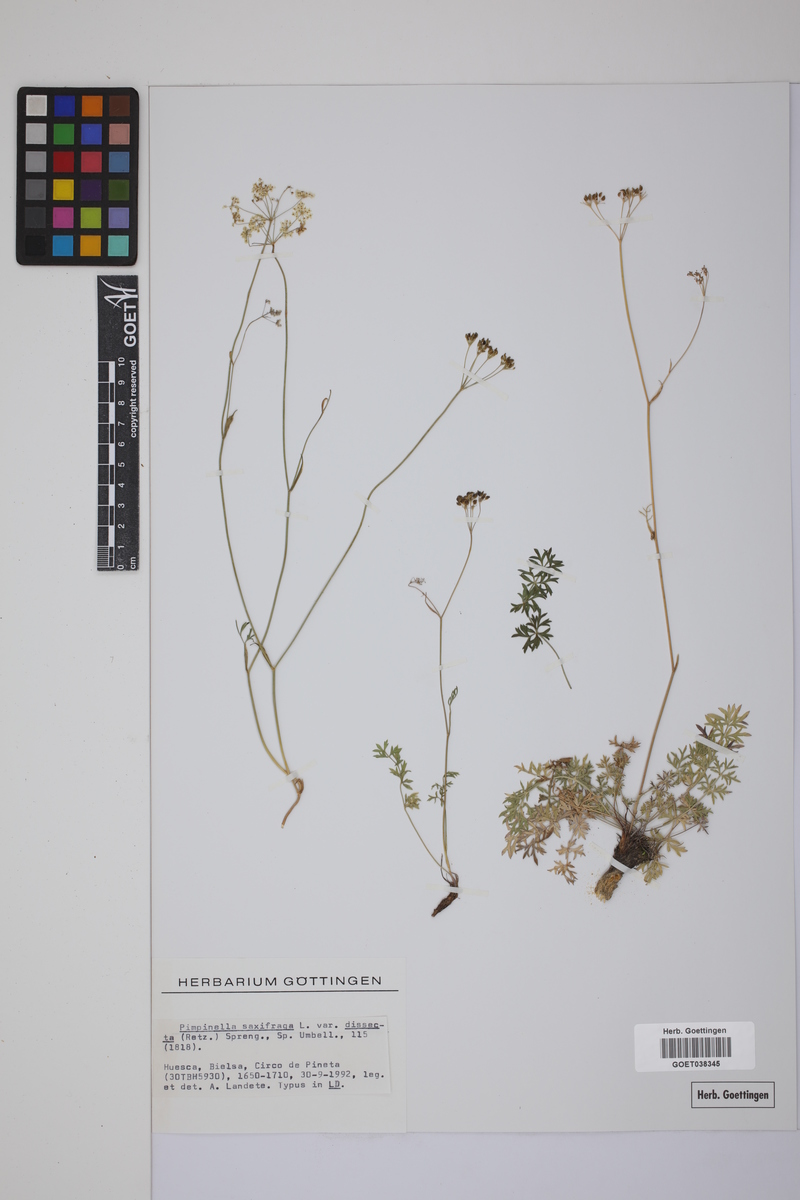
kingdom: Plantae
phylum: Tracheophyta
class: Magnoliopsida
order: Apiales
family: Apiaceae
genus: Pimpinella
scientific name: Pimpinella saxifraga
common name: Burnet-saxifrage
